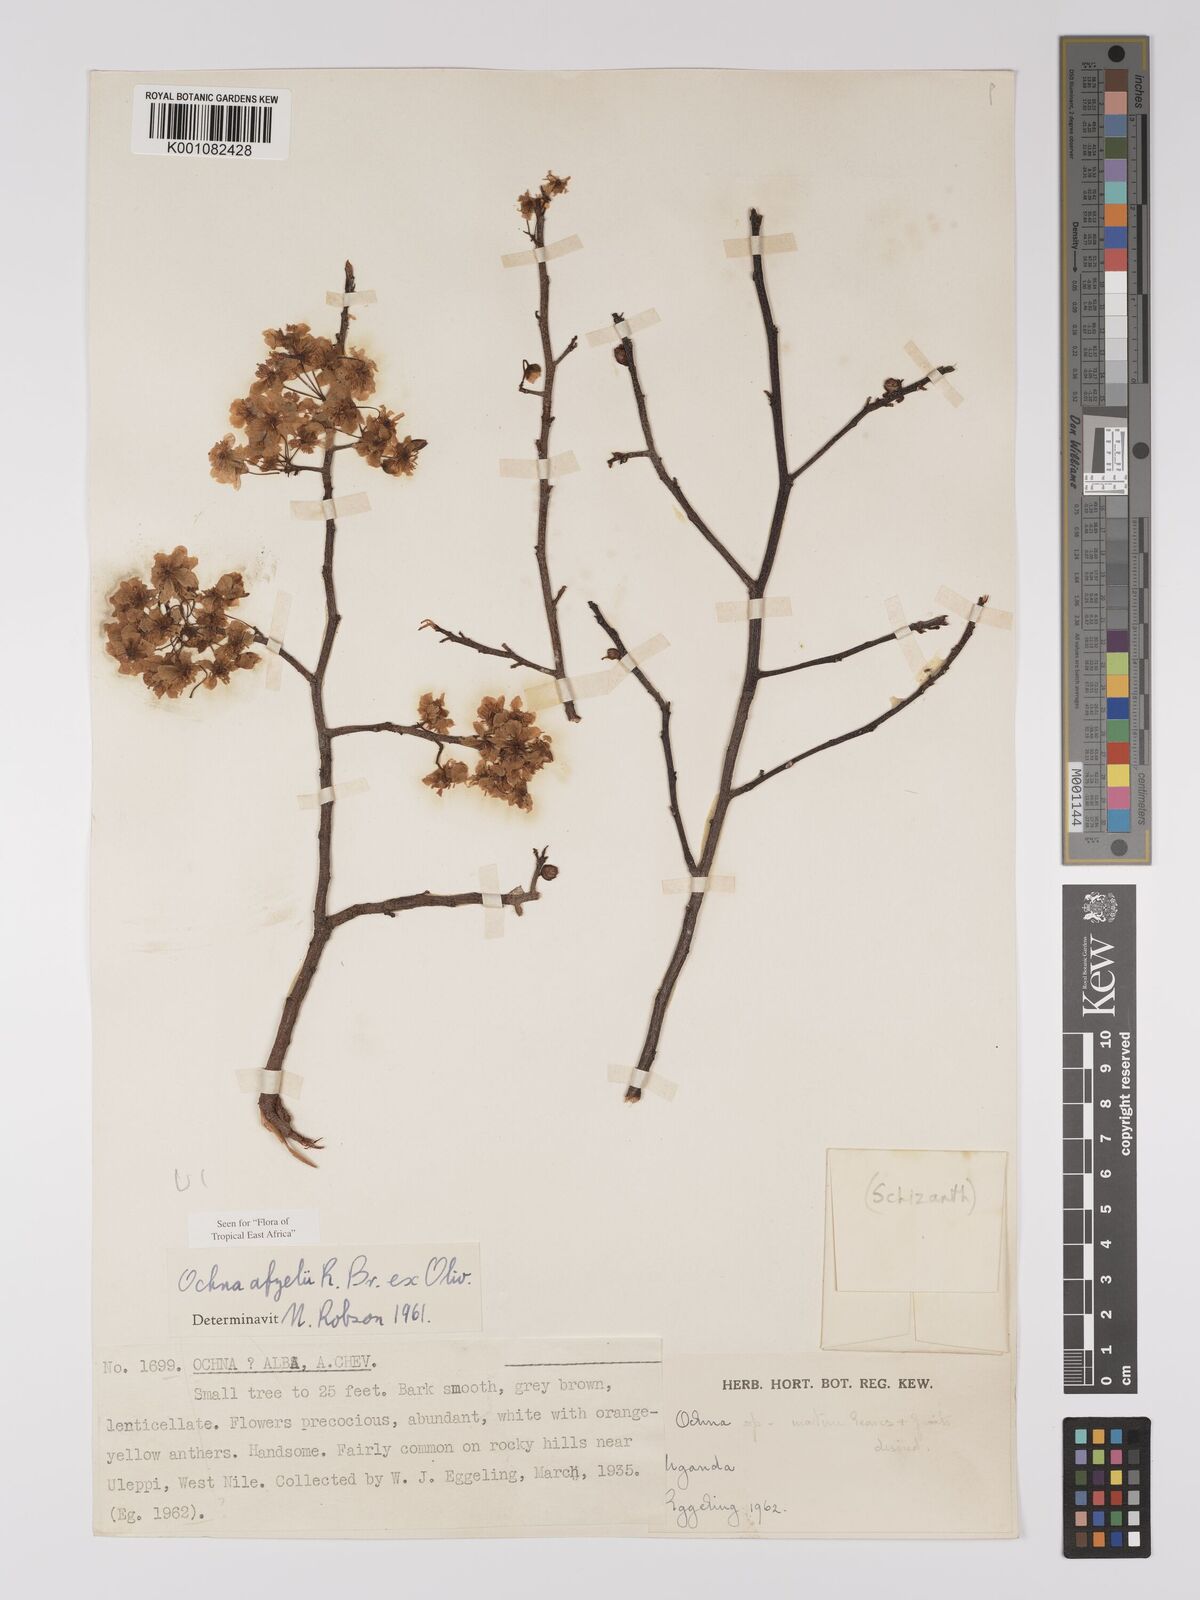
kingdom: Plantae
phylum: Tracheophyta
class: Magnoliopsida
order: Malpighiales
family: Ochnaceae
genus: Ochna
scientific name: Ochna afzelii
